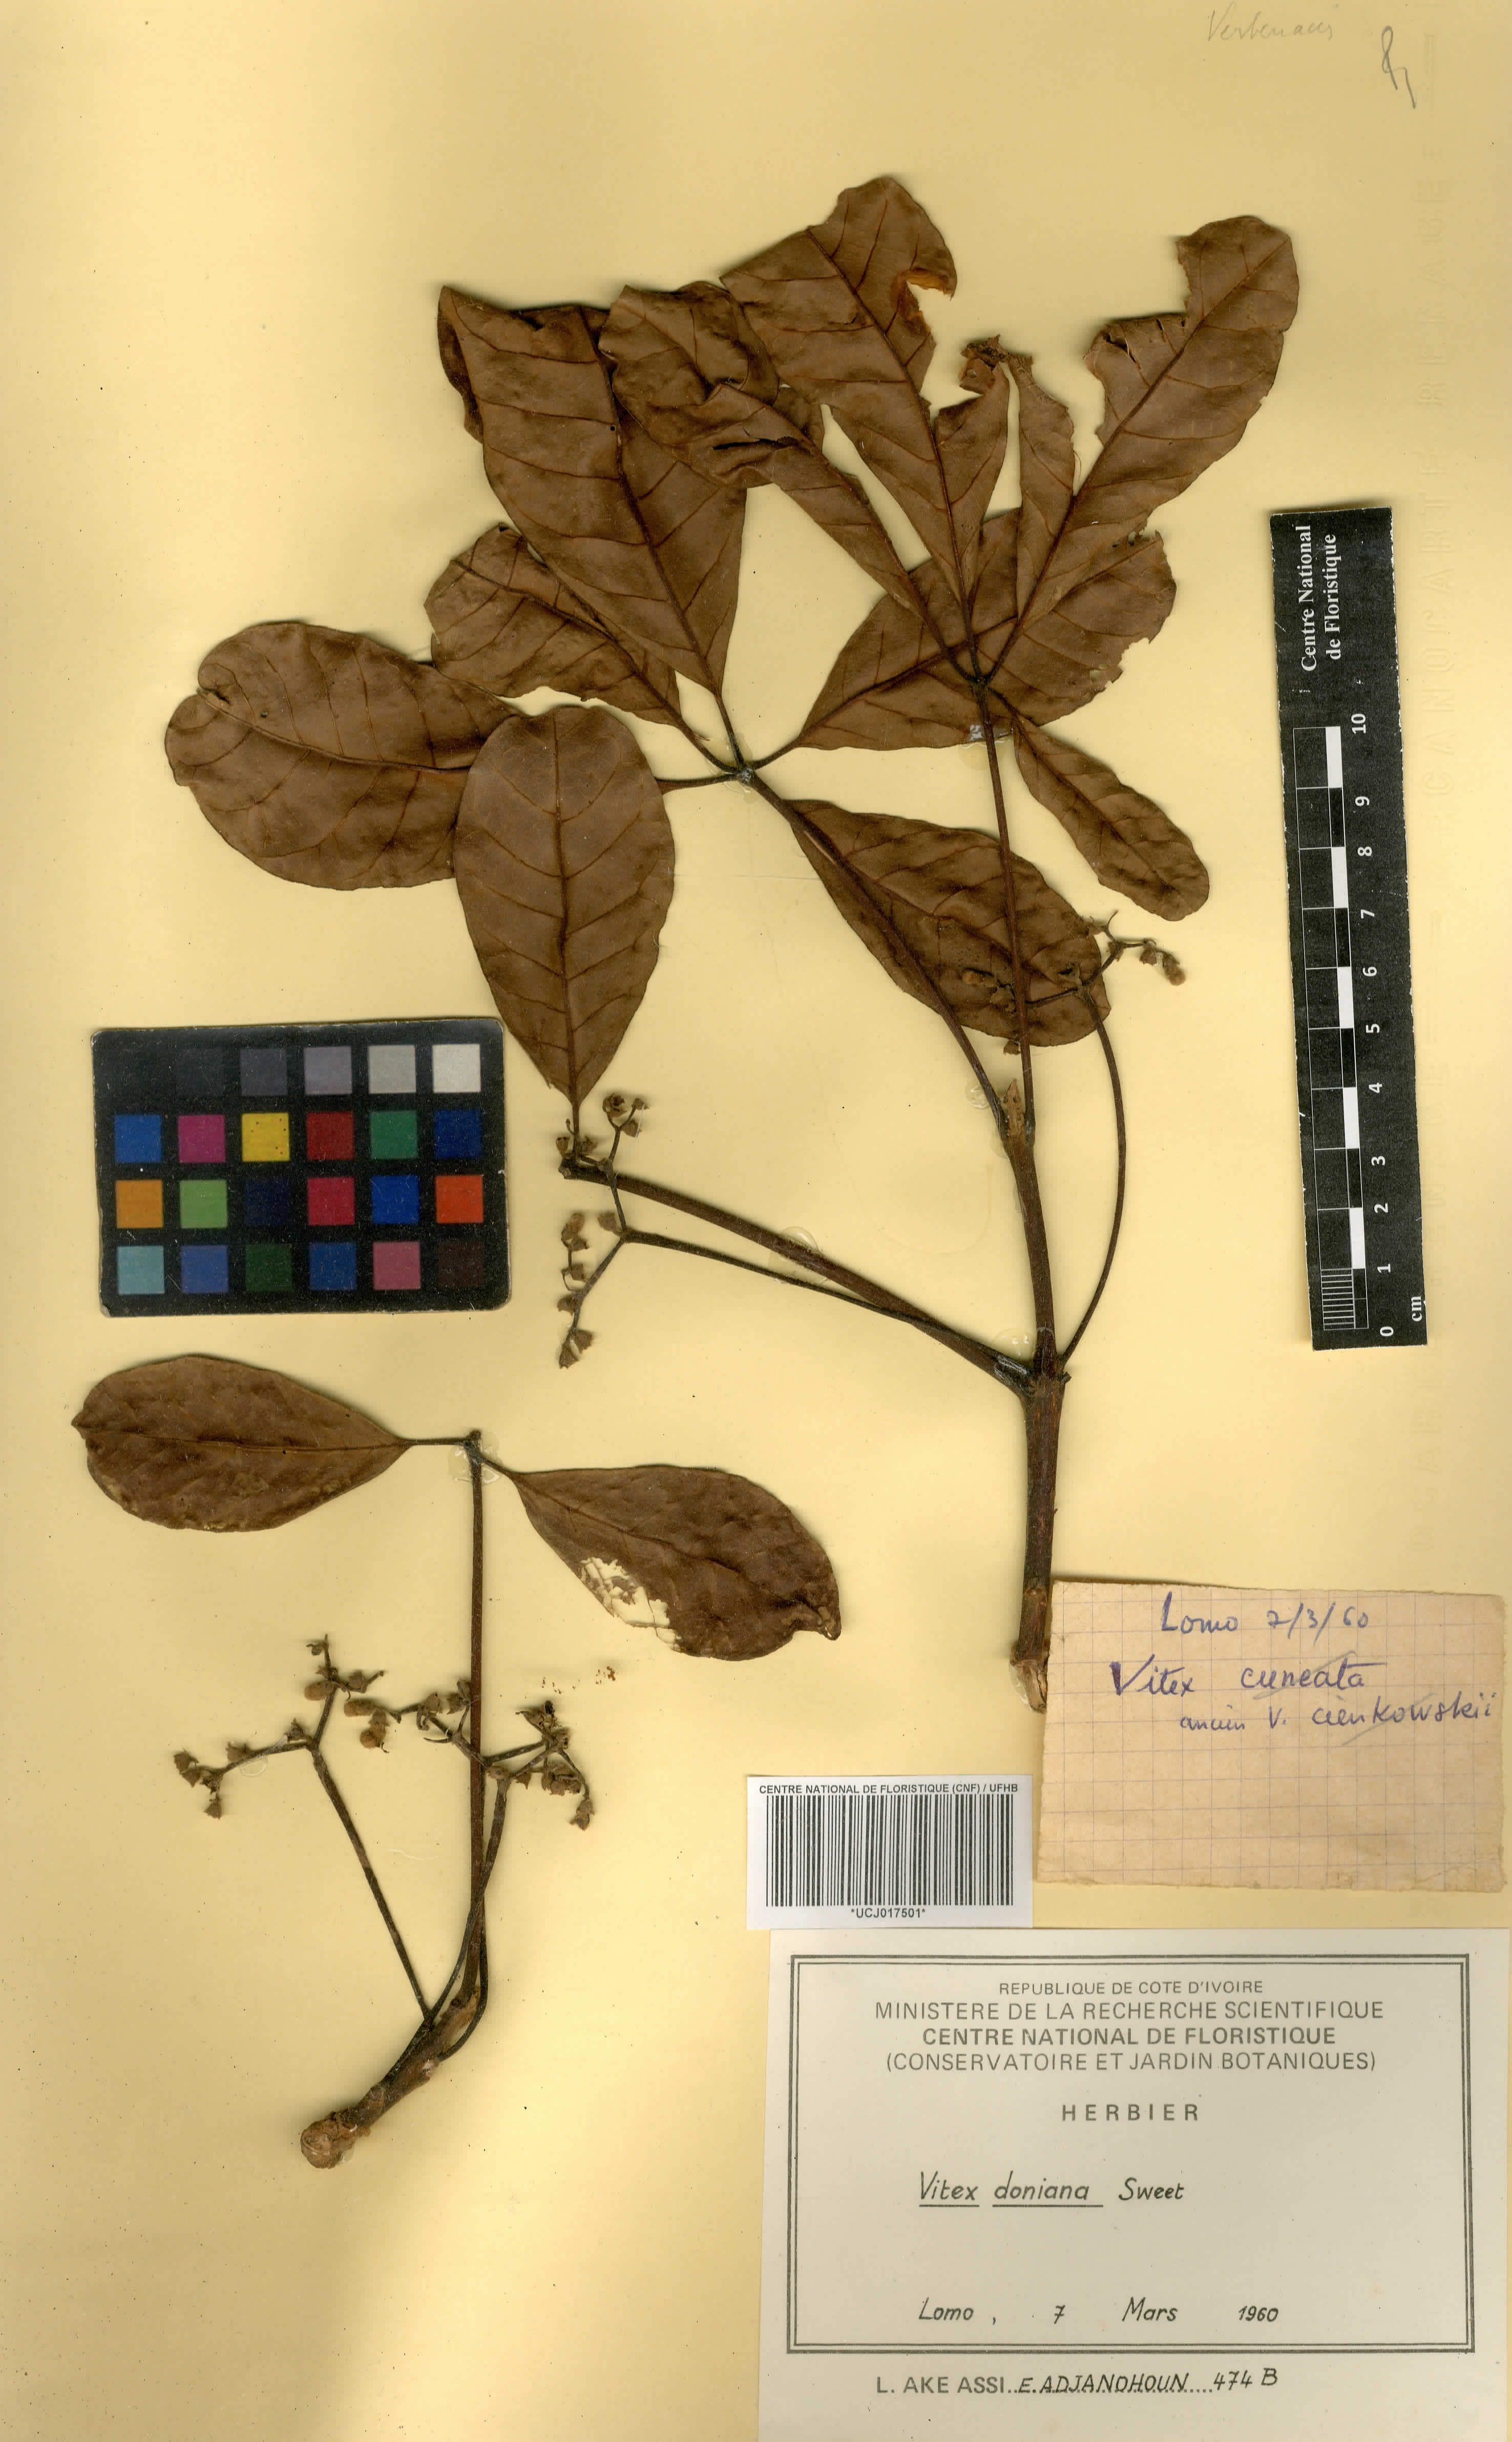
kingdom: Plantae
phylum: Tracheophyta
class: Magnoliopsida
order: Lamiales
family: Lamiaceae
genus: Vitex
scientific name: Vitex doniana
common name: Black plum
